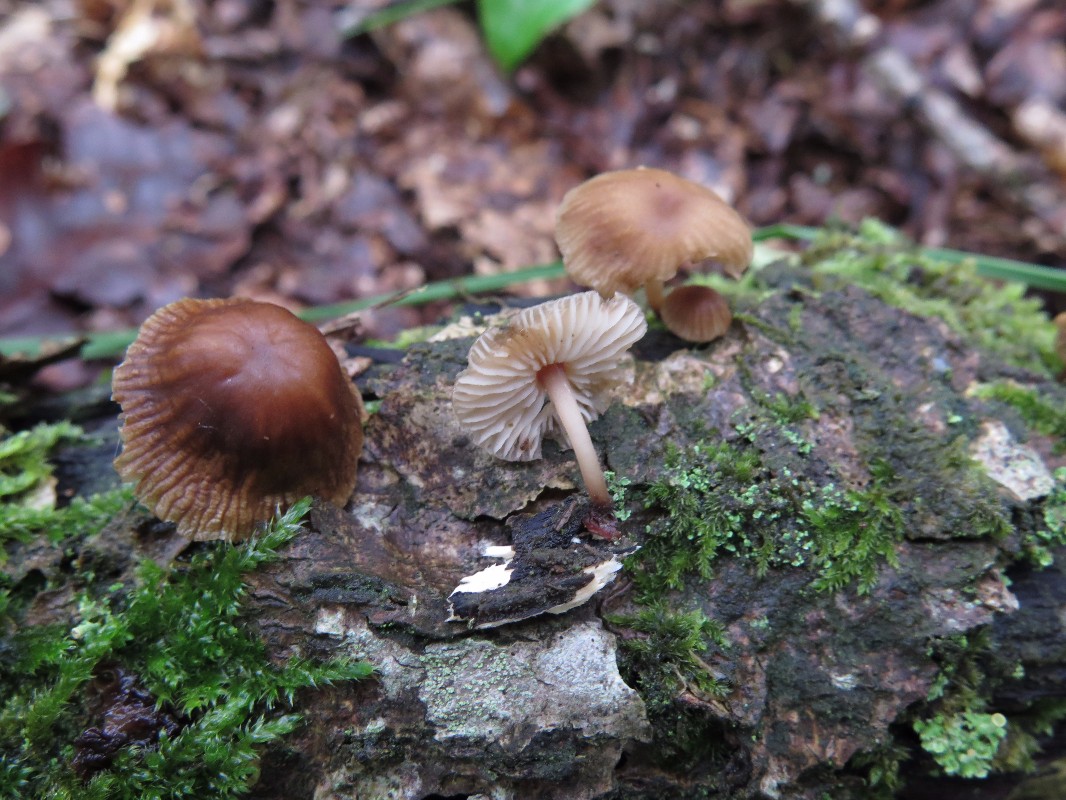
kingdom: Fungi
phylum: Basidiomycota
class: Agaricomycetes
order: Agaricales
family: Mycenaceae
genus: Mycena
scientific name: Mycena
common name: huesvamp
